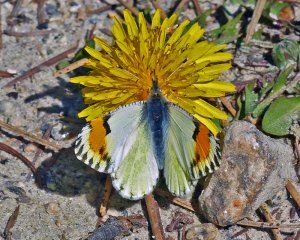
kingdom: Animalia
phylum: Arthropoda
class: Insecta
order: Lepidoptera
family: Pieridae
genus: Anthocharis
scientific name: Anthocharis sara
